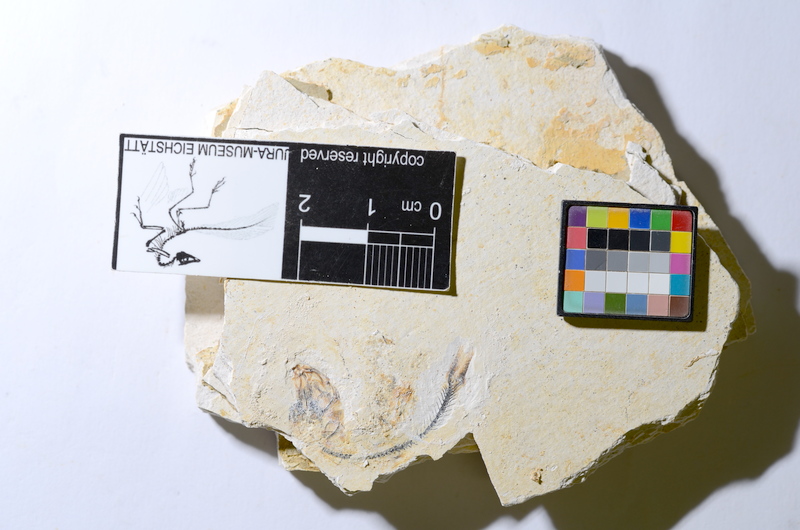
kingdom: Animalia
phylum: Chordata
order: Salmoniformes
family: Orthogonikleithridae
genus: Orthogonikleithrus
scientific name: Orthogonikleithrus hoelli
